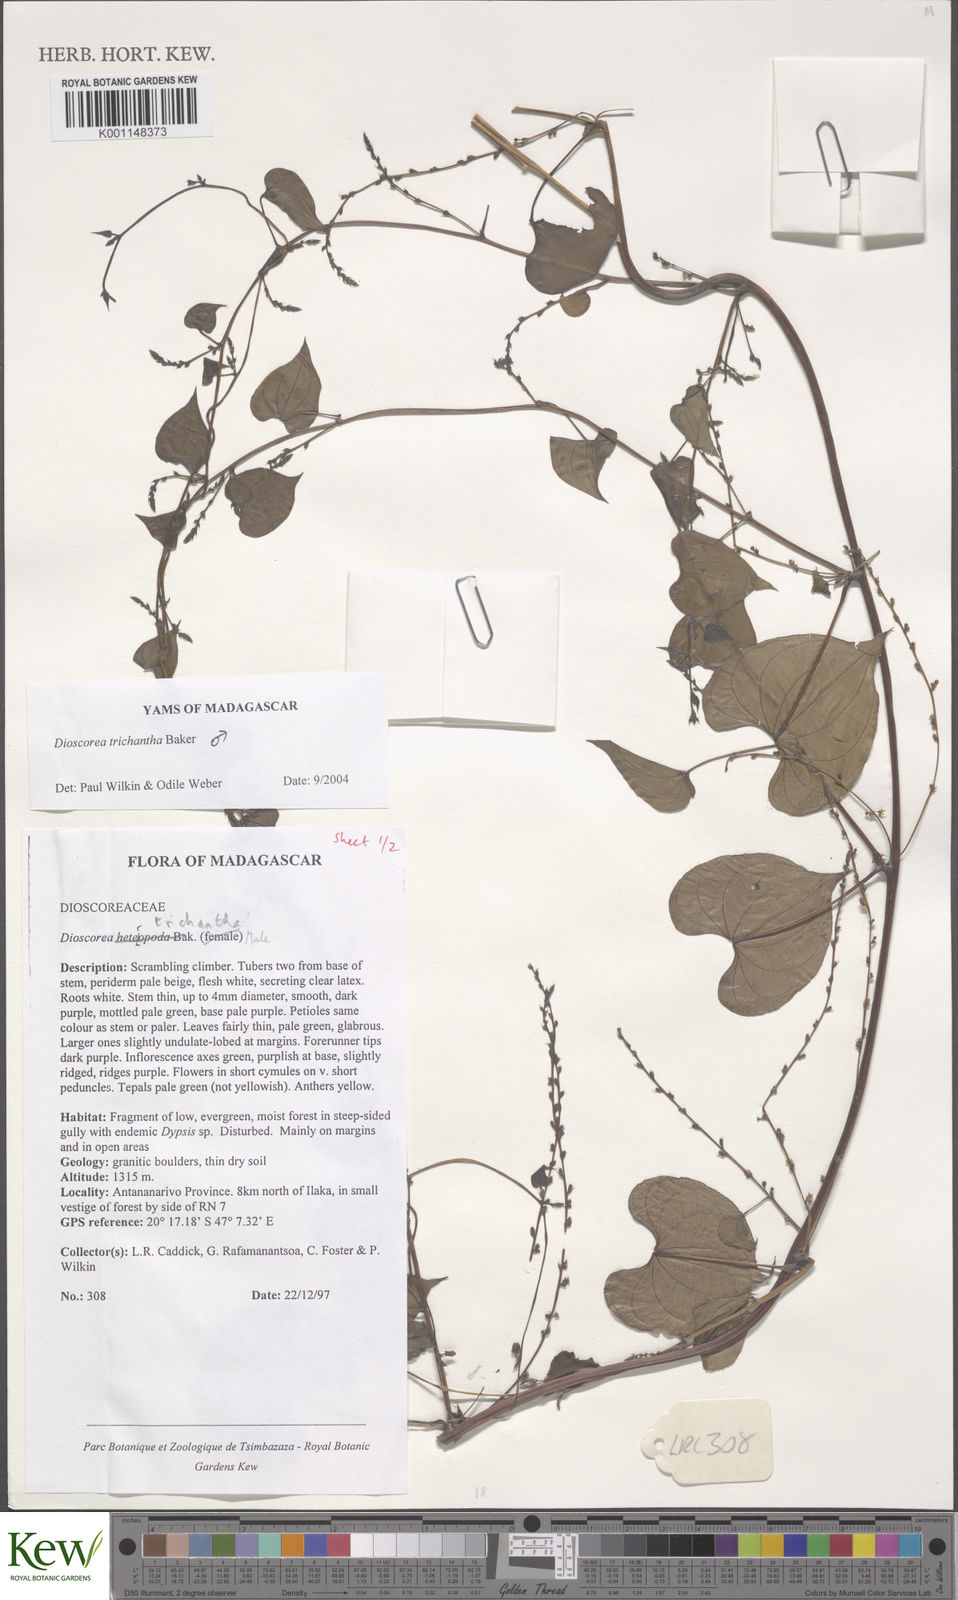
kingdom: Plantae
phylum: Tracheophyta
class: Liliopsida
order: Dioscoreales
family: Dioscoreaceae
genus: Dioscorea
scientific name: Dioscorea trichantha
